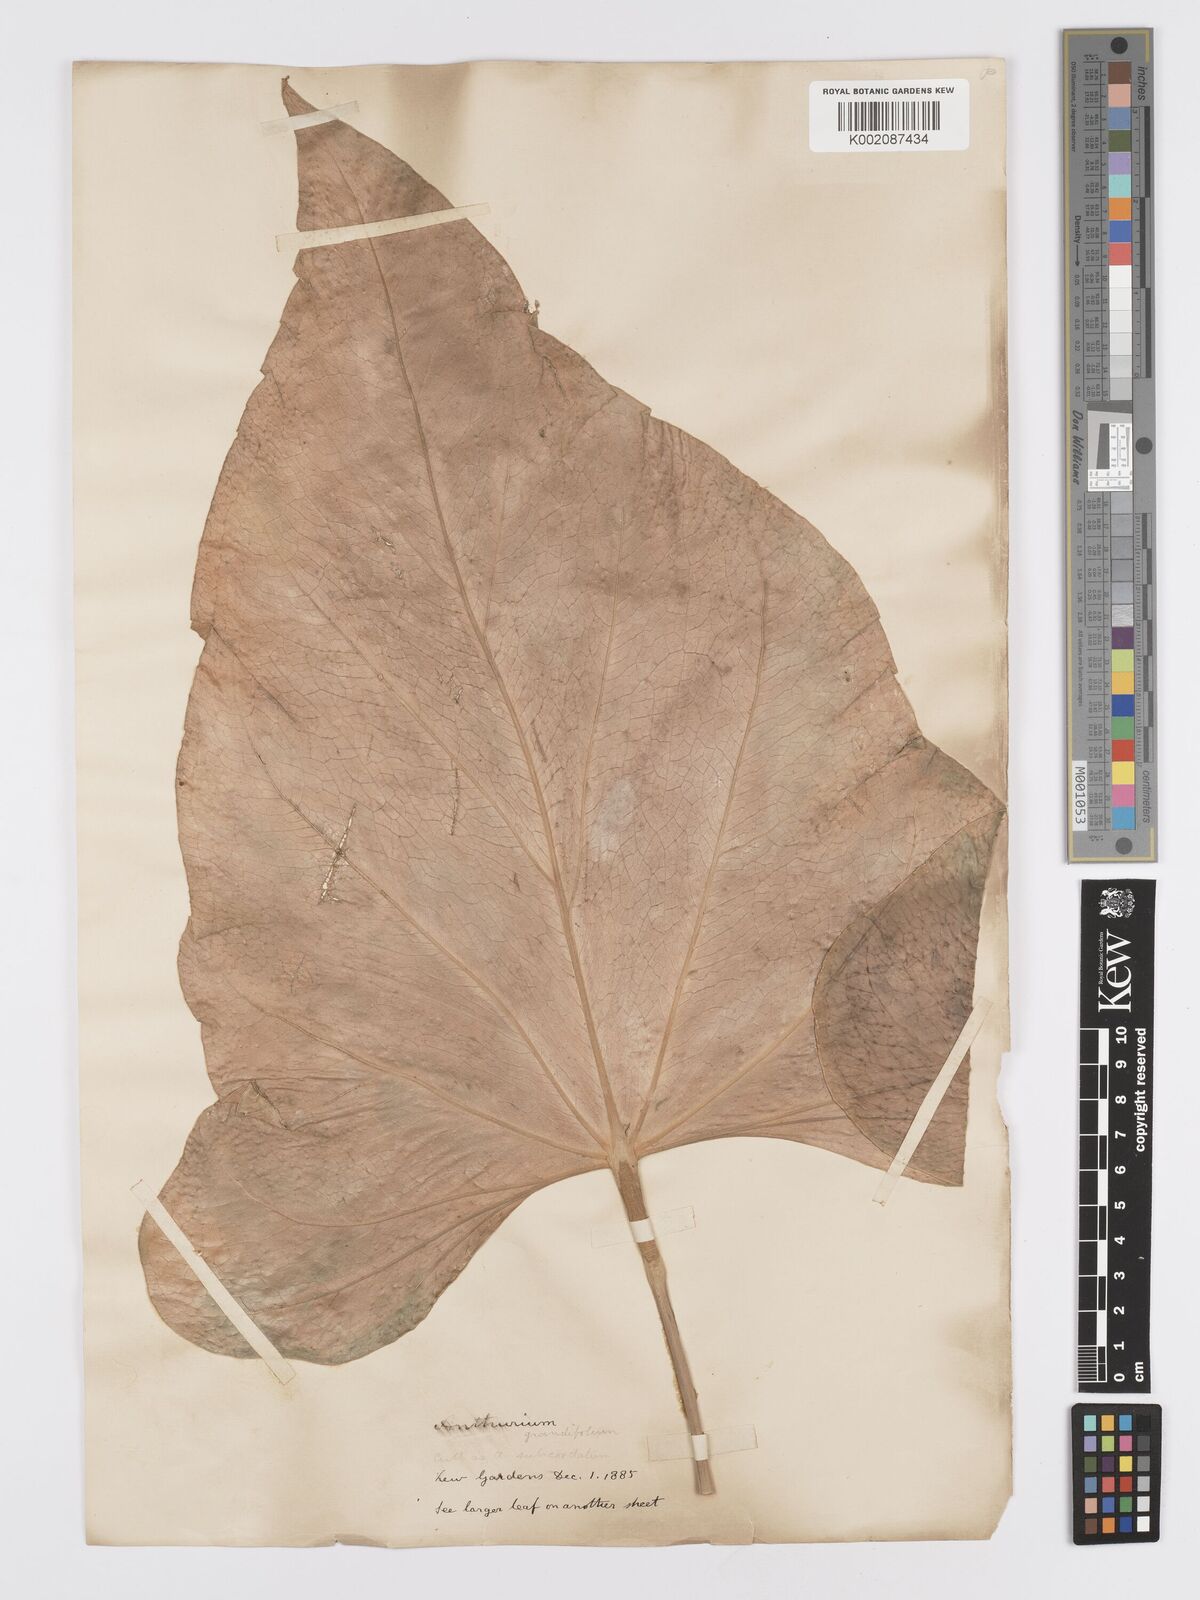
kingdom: Plantae
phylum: Tracheophyta
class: Liliopsida
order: Alismatales
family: Araceae
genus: Anthurium
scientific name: Anthurium
